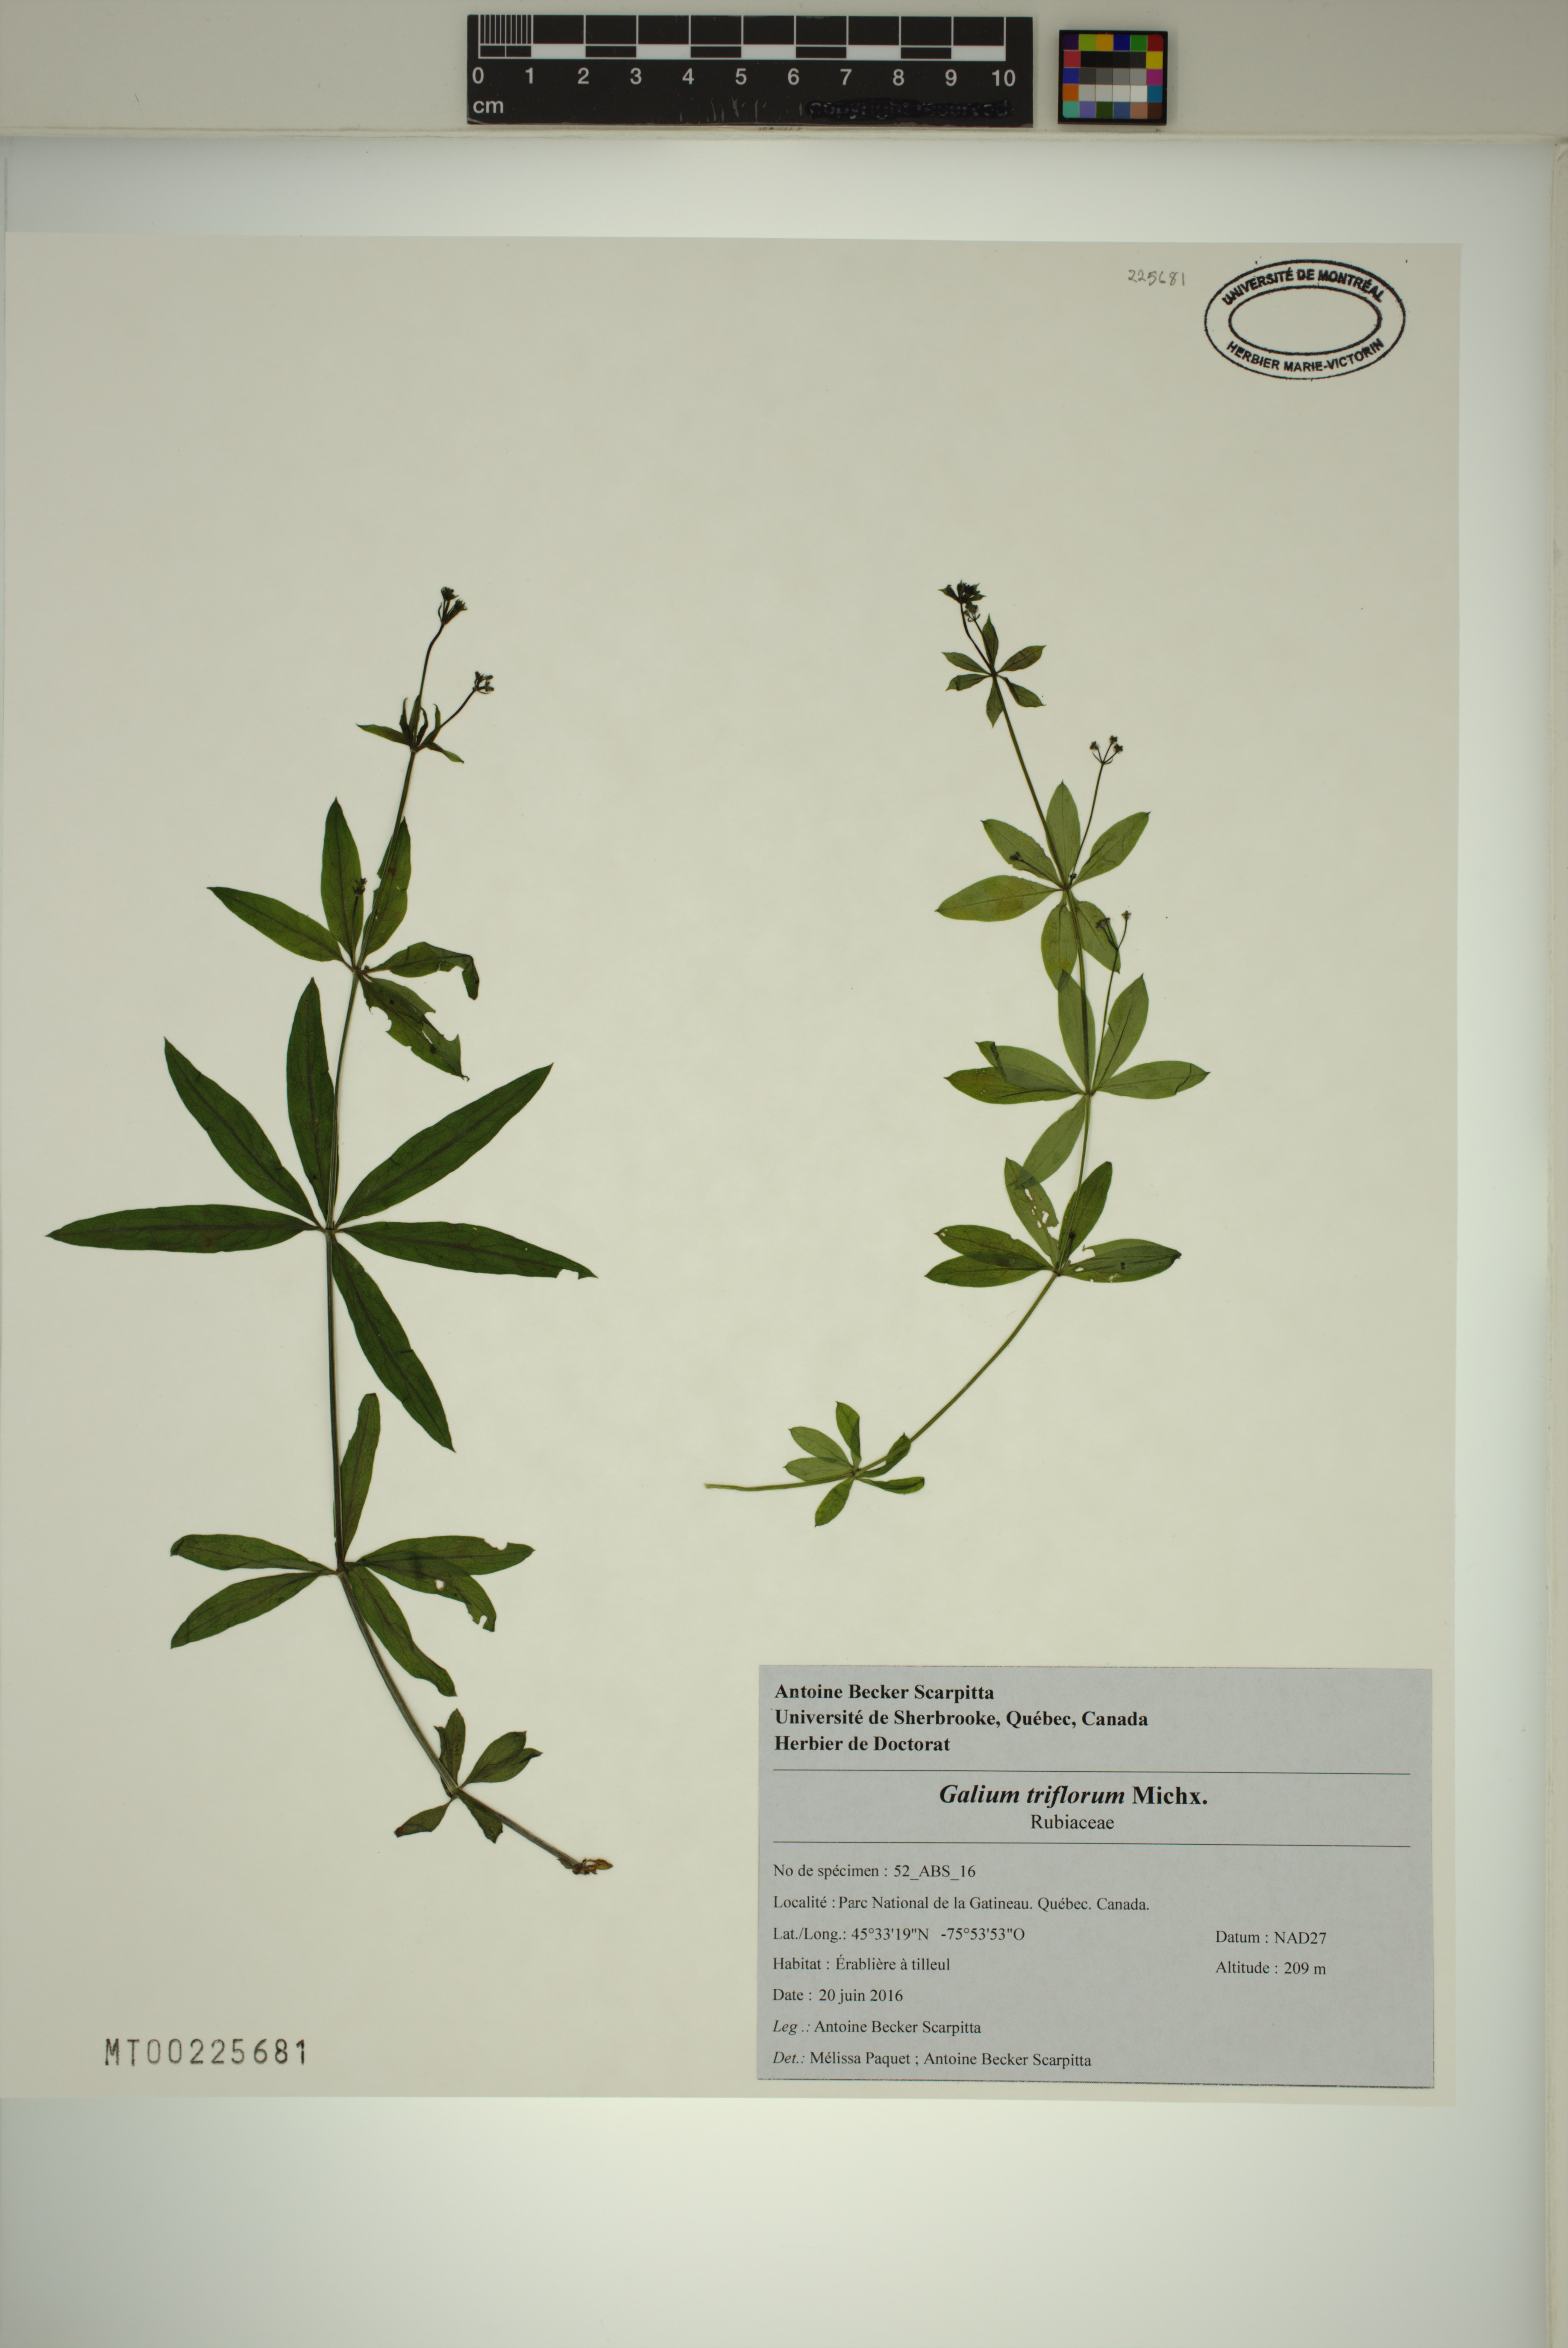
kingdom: Plantae
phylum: Tracheophyta
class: Magnoliopsida
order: Gentianales
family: Rubiaceae
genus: Galium
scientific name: Galium triflorum
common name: Fragrant bedstraw
